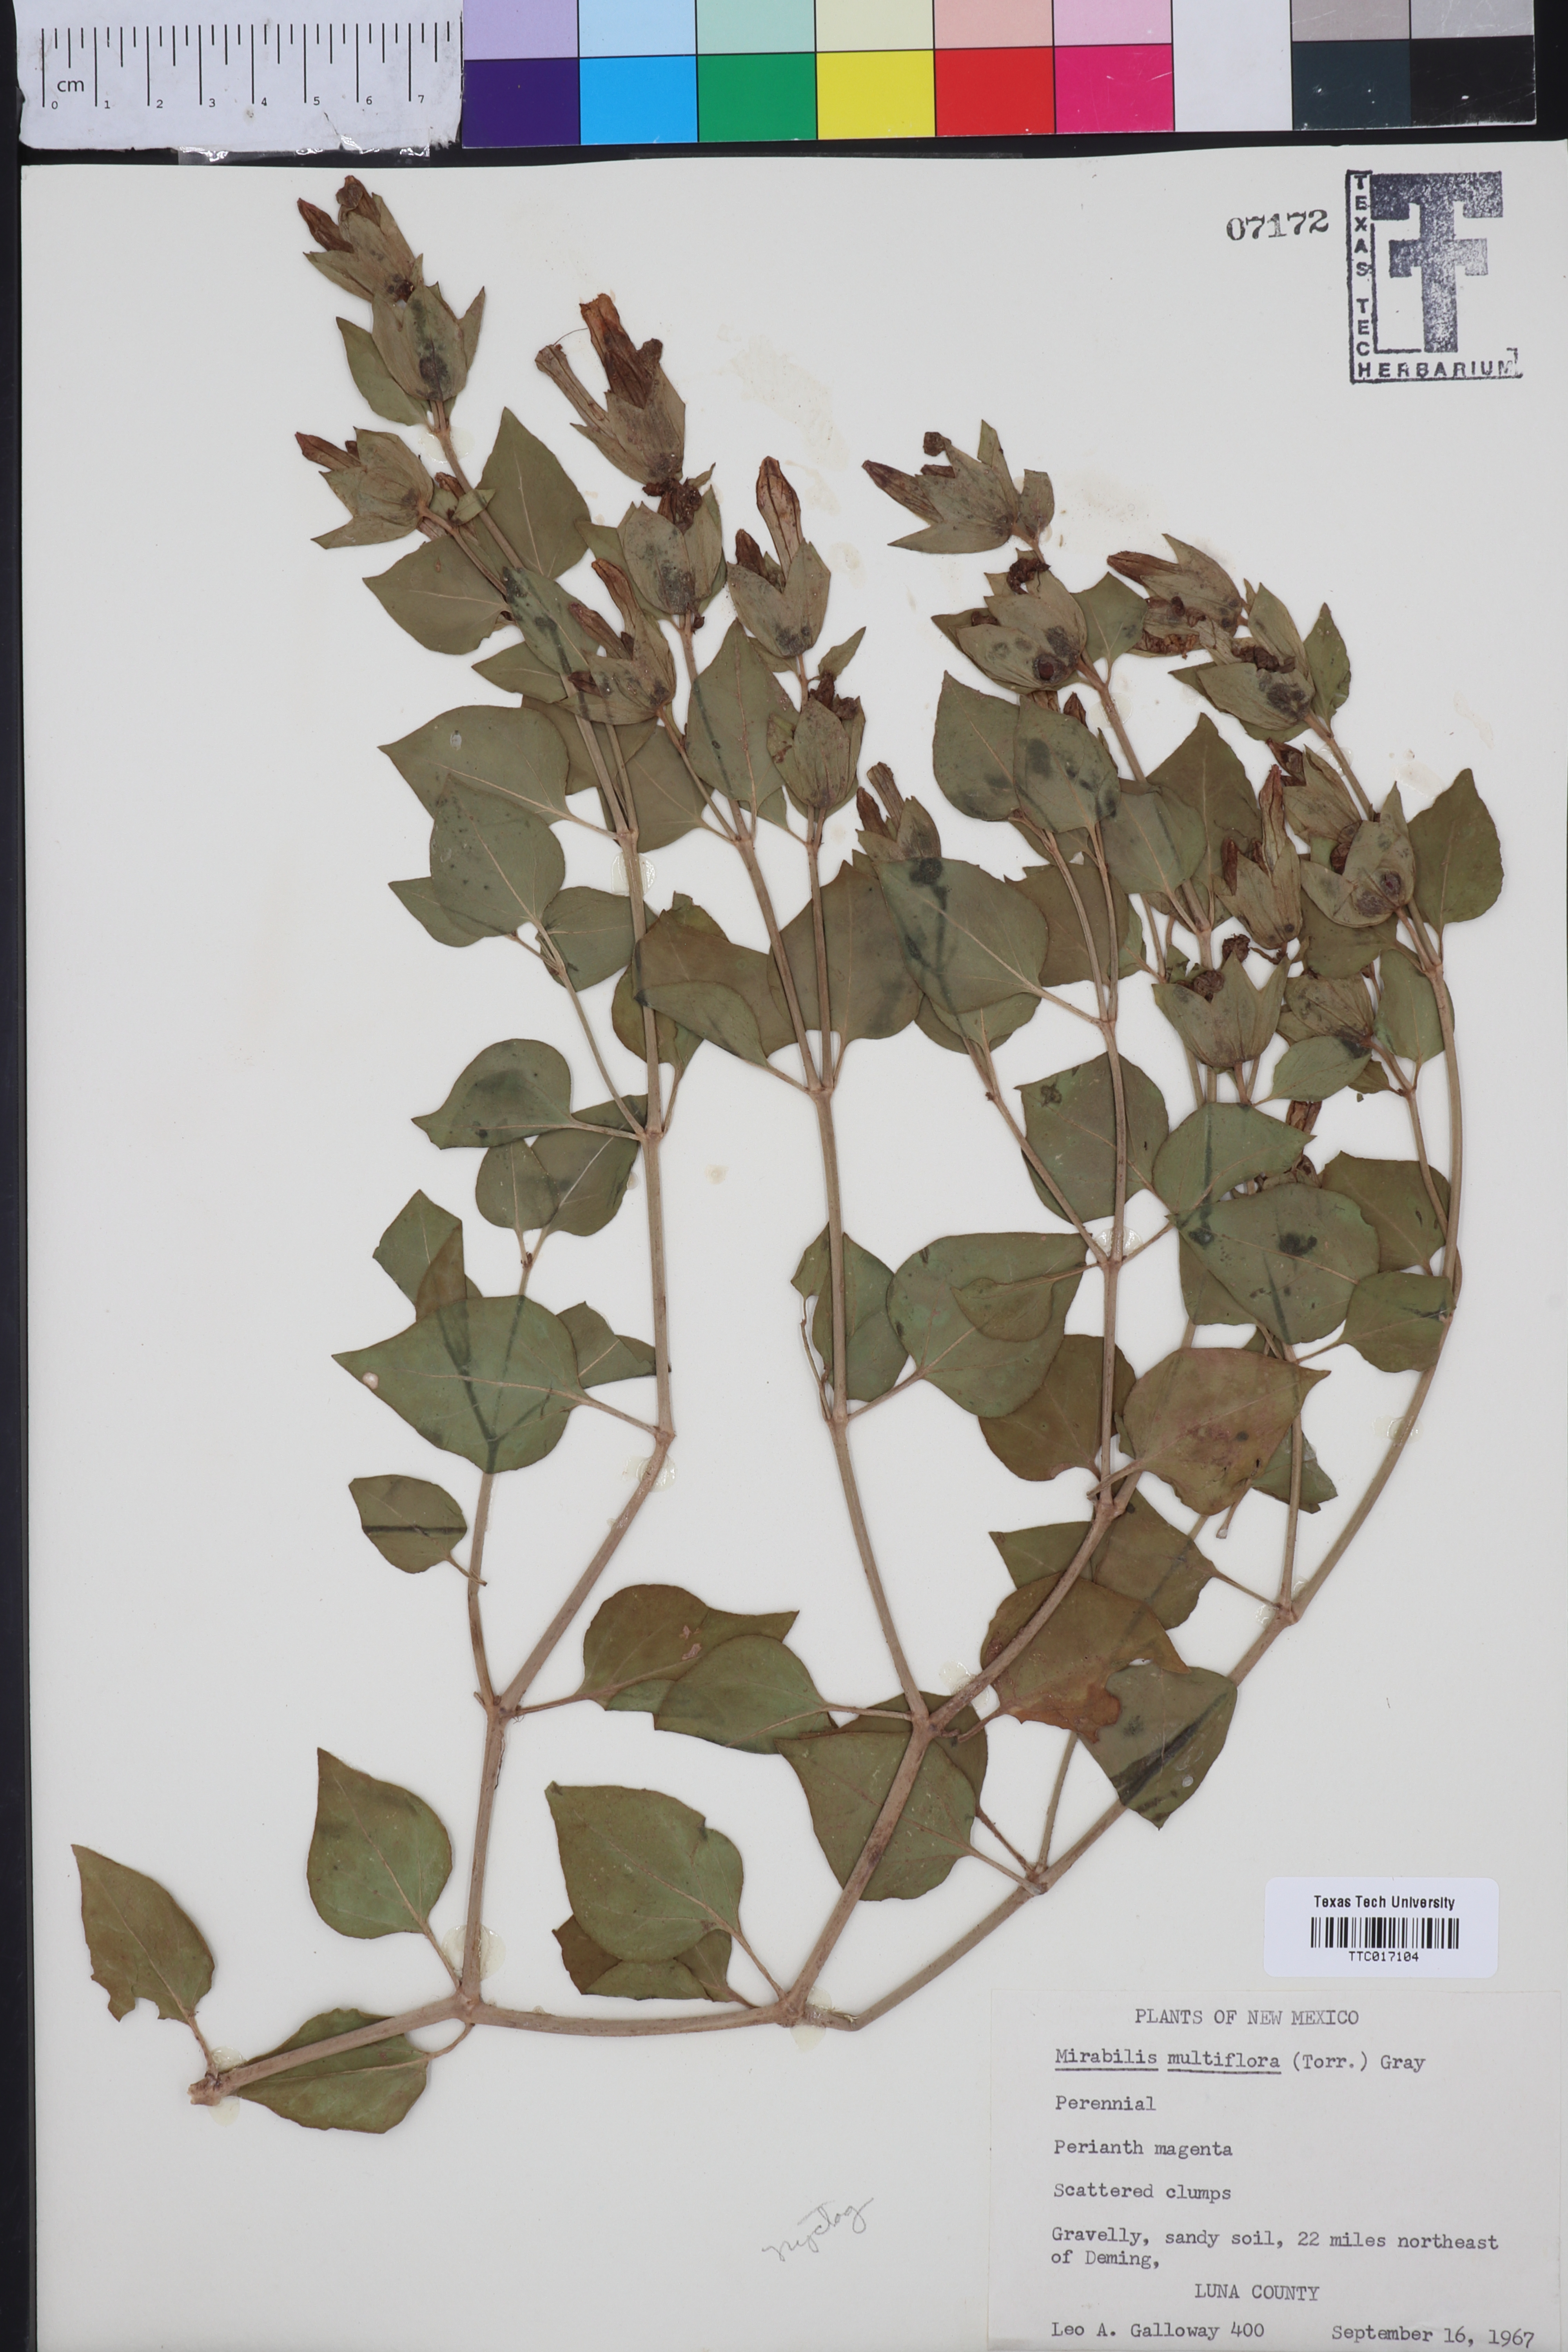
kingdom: Plantae
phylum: Tracheophyta
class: Magnoliopsida
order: Caryophyllales
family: Nyctaginaceae
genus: Mirabilis
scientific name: Mirabilis multiflora
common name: Froebel's four-o'clock
